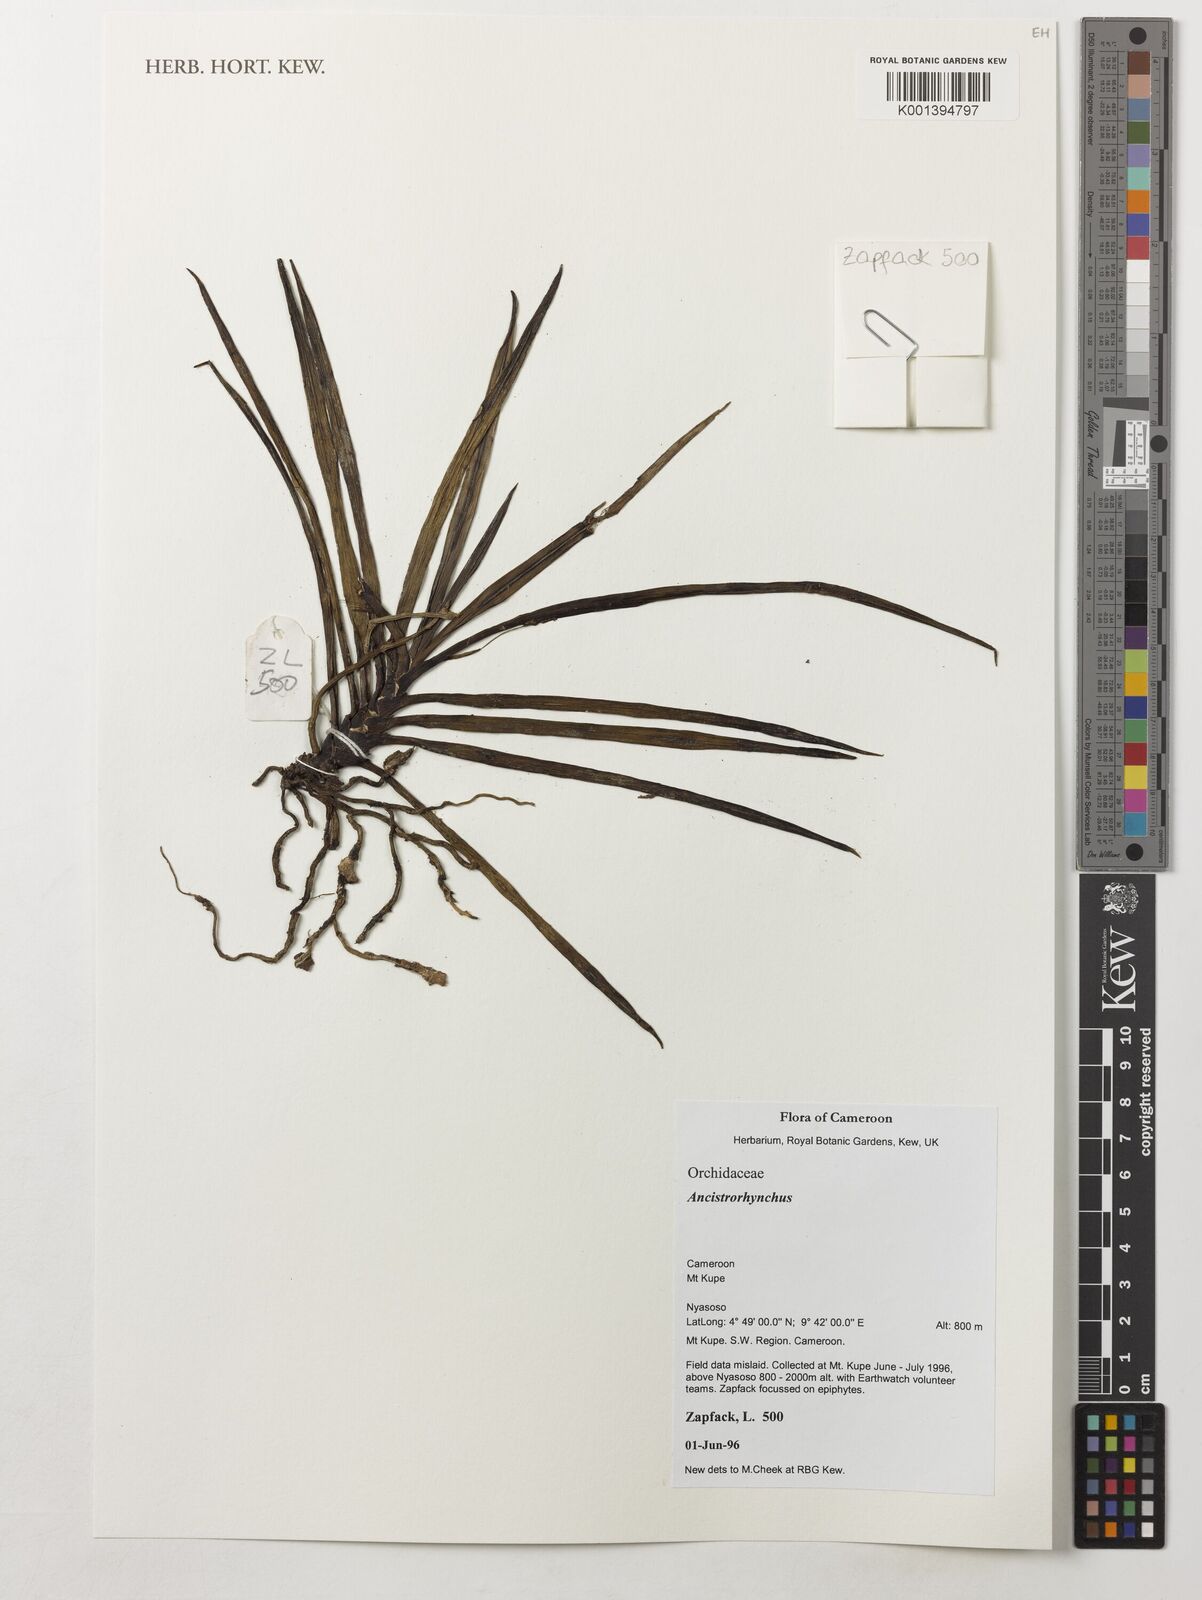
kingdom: Plantae
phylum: Tracheophyta
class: Liliopsida
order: Asparagales
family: Orchidaceae
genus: Ancistrorhynchus
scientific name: Ancistrorhynchus
